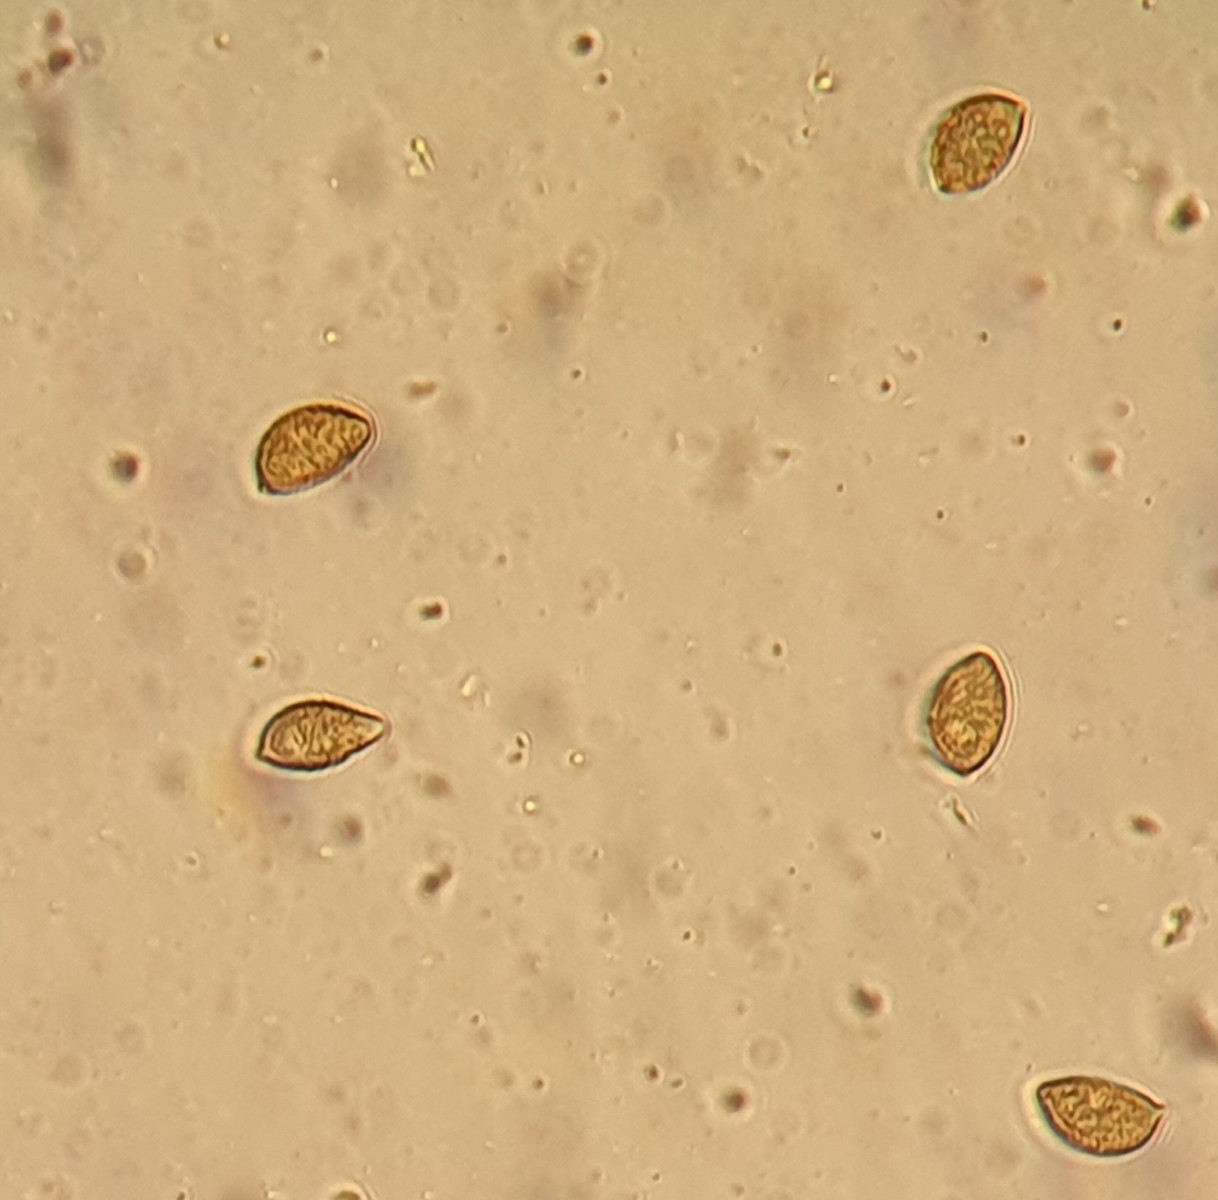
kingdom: Fungi
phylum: Basidiomycota
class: Agaricomycetes
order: Agaricales
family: Hymenogastraceae
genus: Hebeloma
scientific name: Hebeloma sinapizans
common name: ræddike-tåreblad
